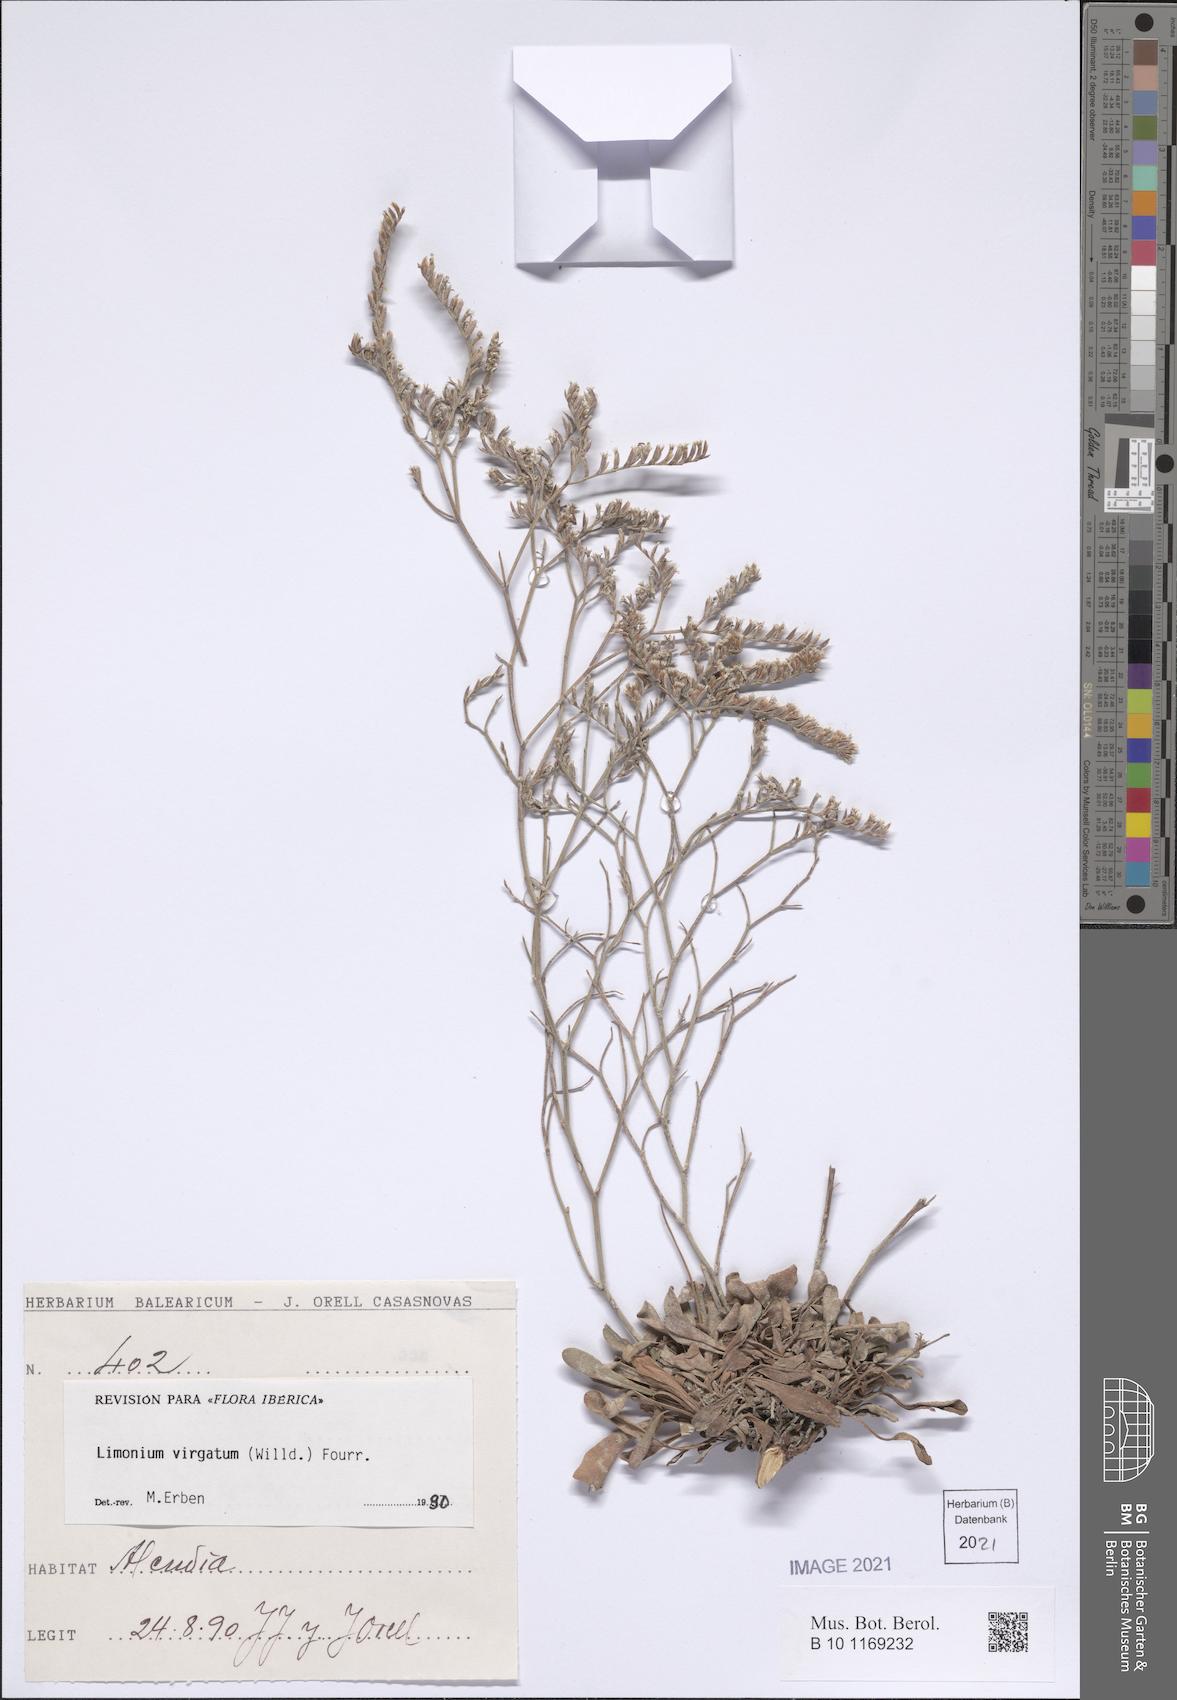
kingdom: Plantae
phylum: Tracheophyta
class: Magnoliopsida
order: Caryophyllales
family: Plumbaginaceae
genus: Limonium
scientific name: Limonium virgatum
